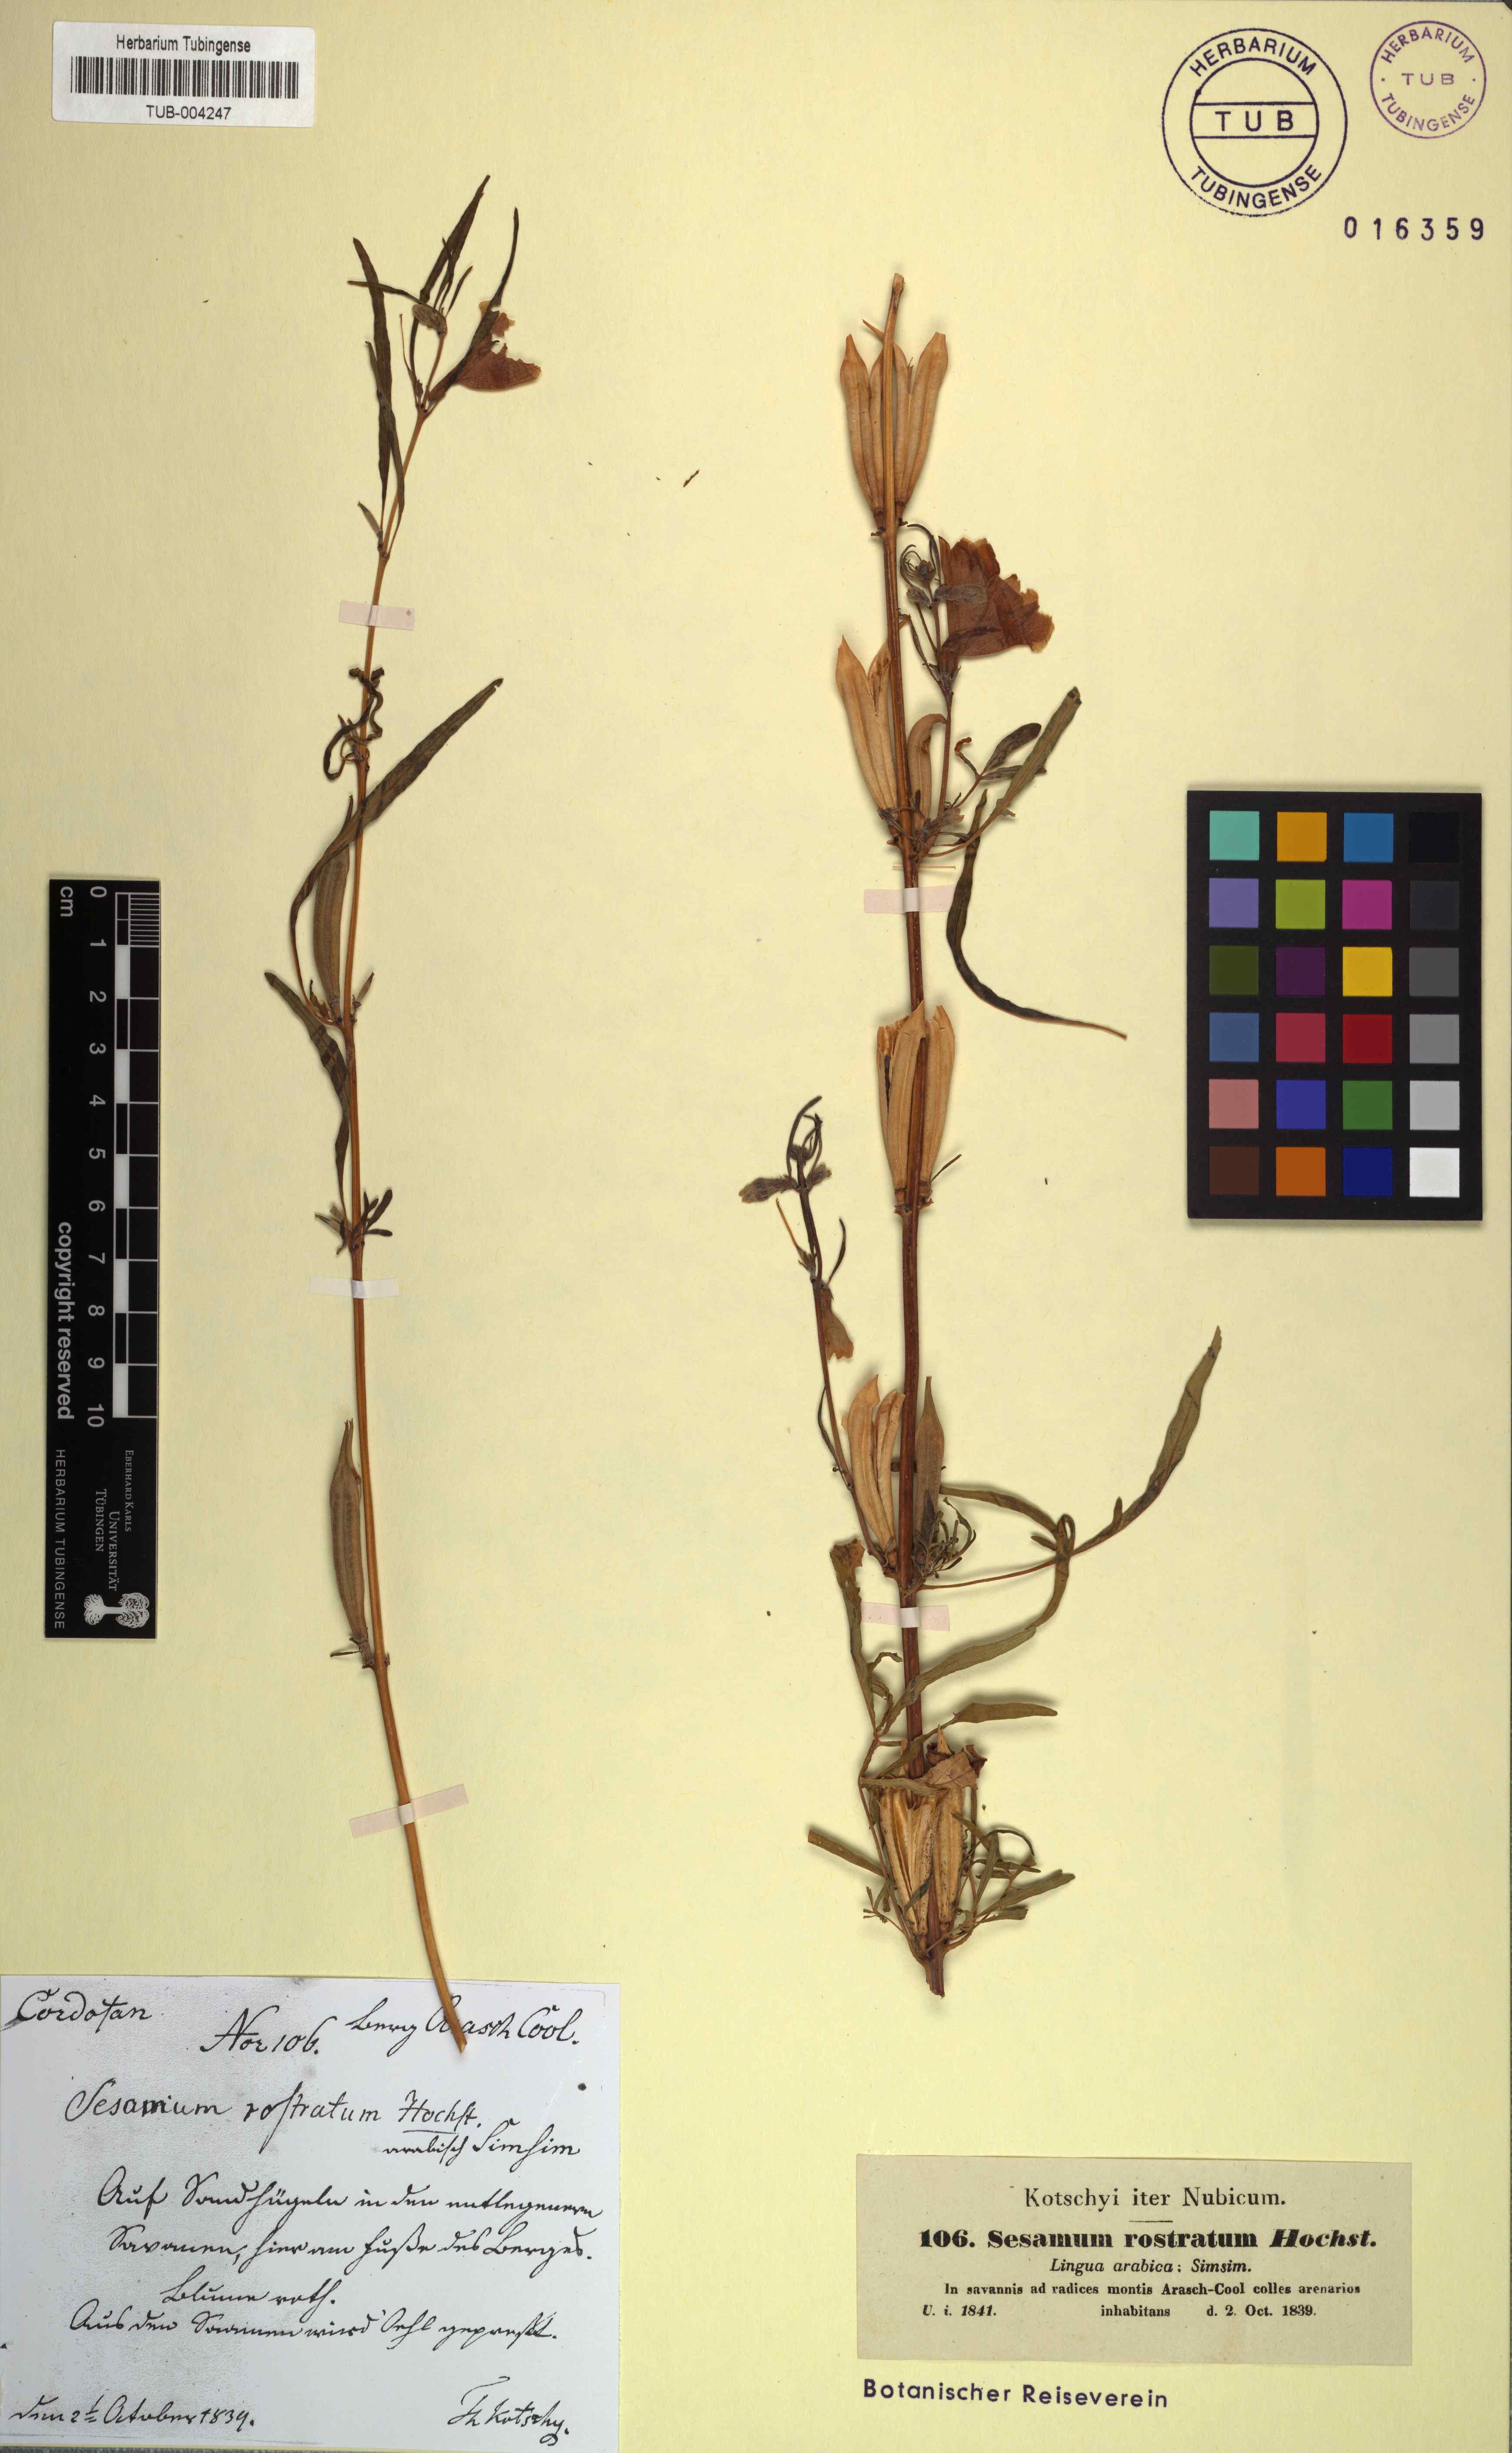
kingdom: Plantae
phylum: Tracheophyta
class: Magnoliopsida
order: Lamiales
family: Pedaliaceae
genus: Sesamum
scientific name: Sesamum alatum
